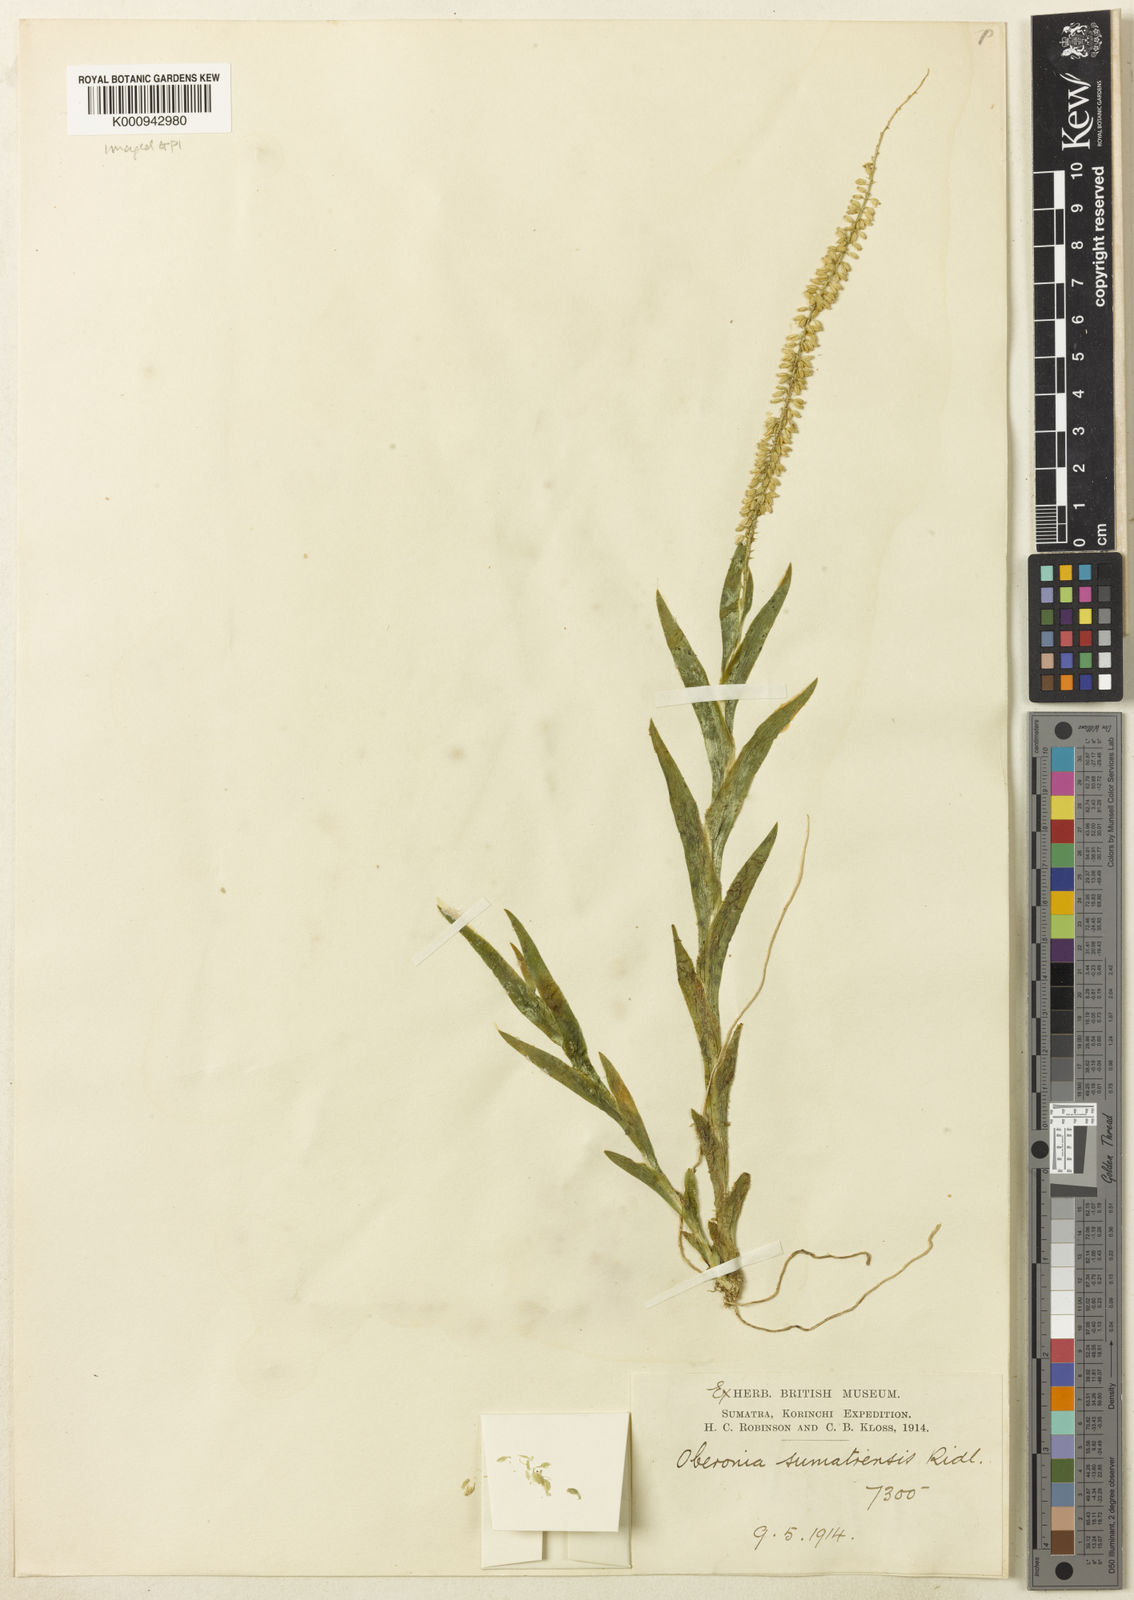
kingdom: Plantae
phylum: Tracheophyta
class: Liliopsida
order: Asparagales
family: Orchidaceae
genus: Oberonia
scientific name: Oberonia sumatrensis
